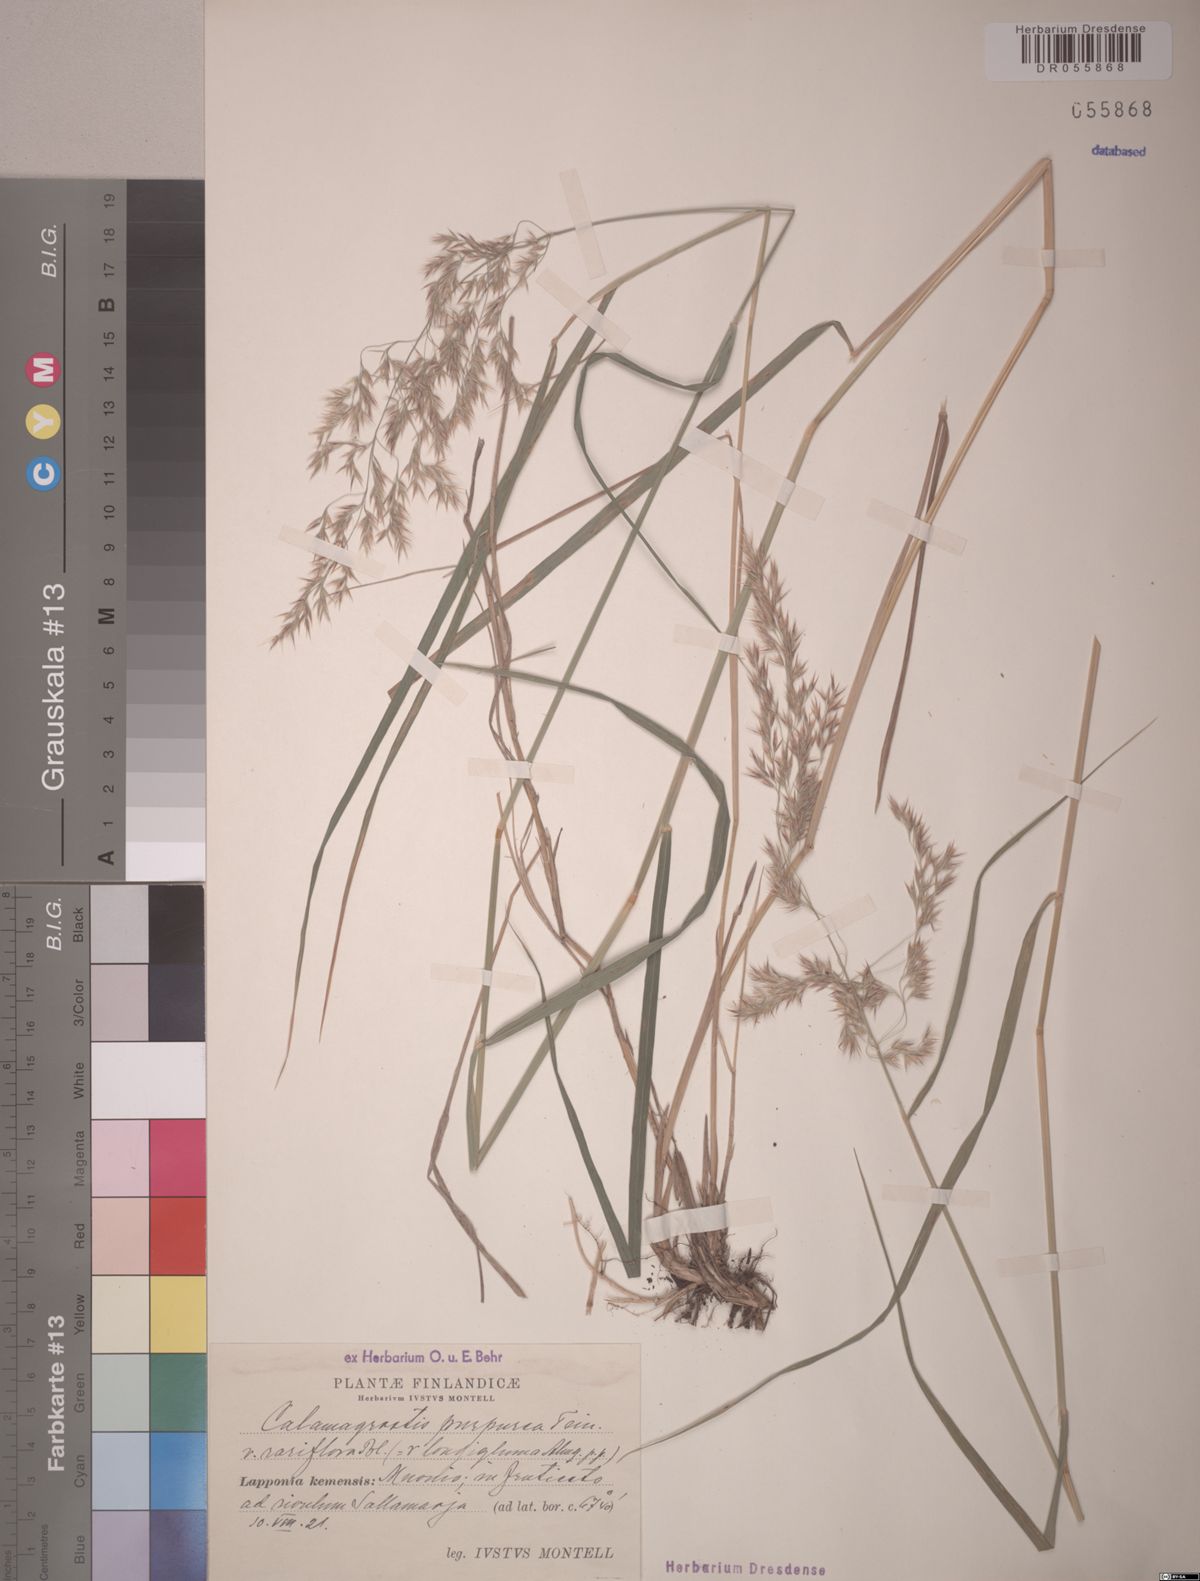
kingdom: Plantae
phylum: Tracheophyta
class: Liliopsida
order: Poales
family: Poaceae
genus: Calamagrostis
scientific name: Calamagrostis purpurea
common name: Scandinavian small-reed
